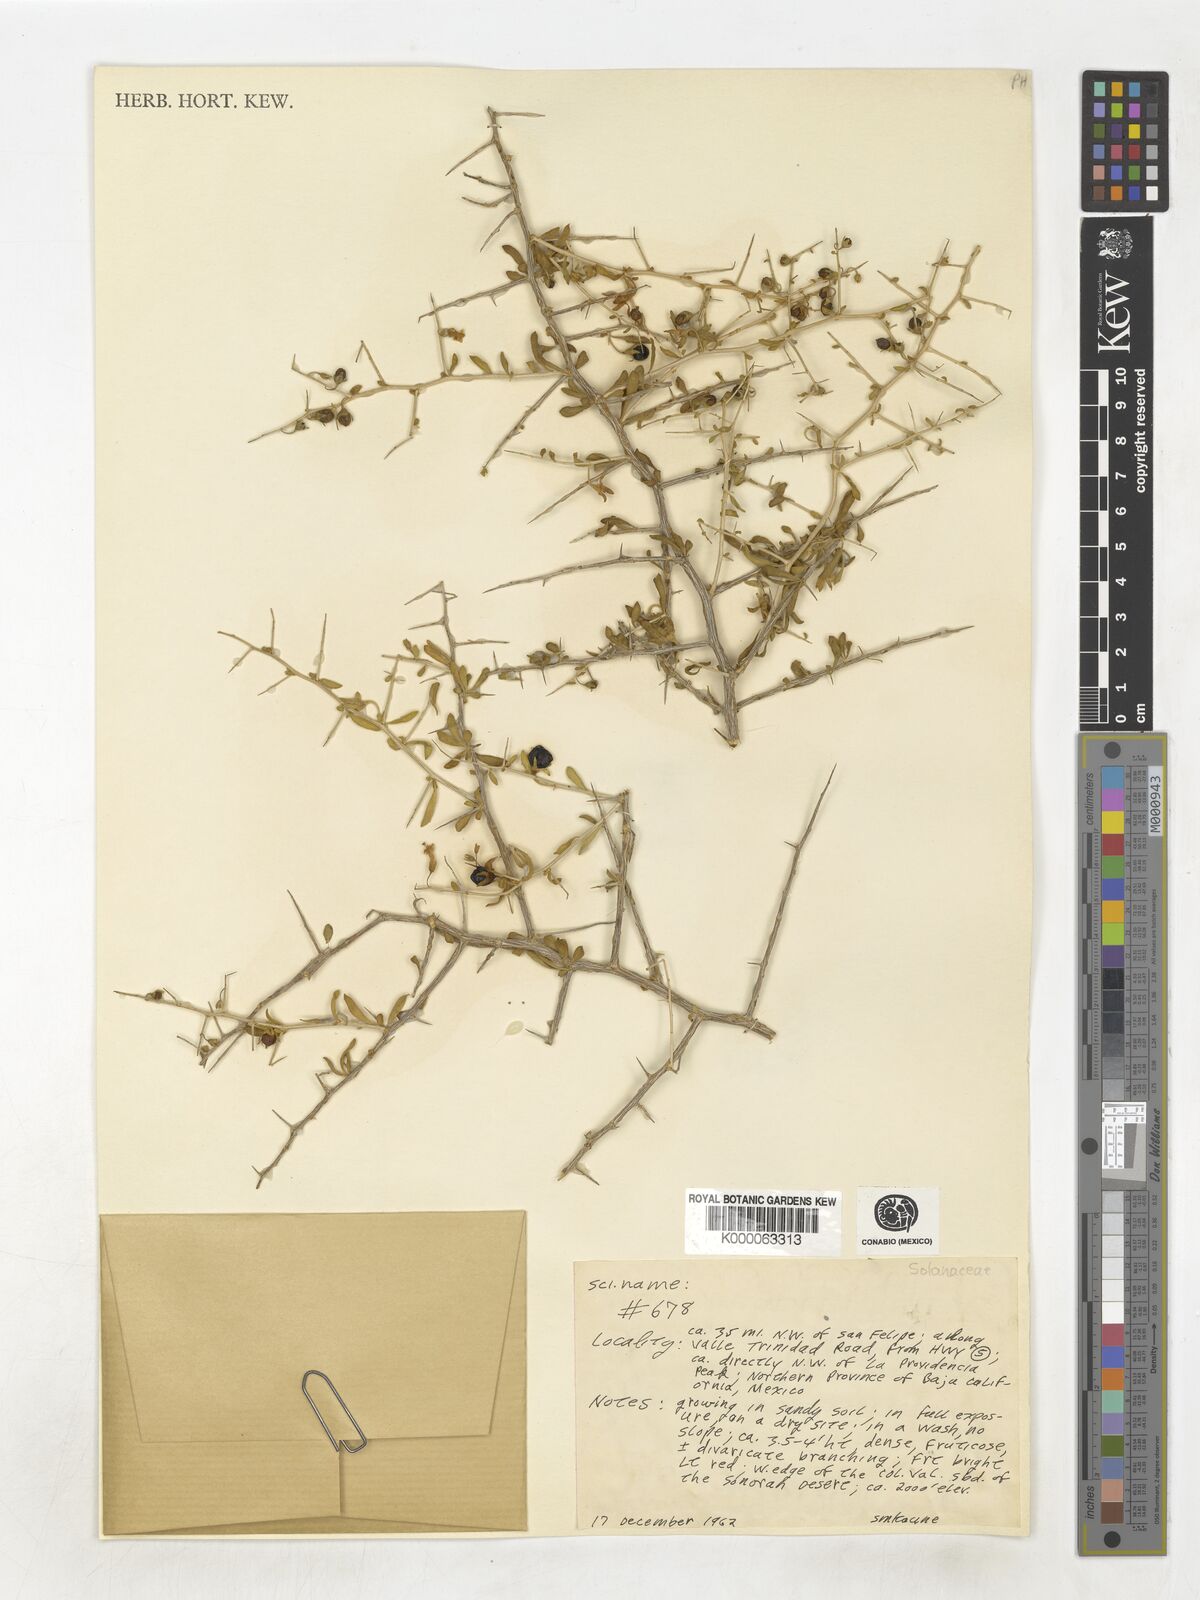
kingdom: Plantae
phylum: Tracheophyta
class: Magnoliopsida
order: Solanales
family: Solanaceae
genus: Lycium
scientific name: Lycium
